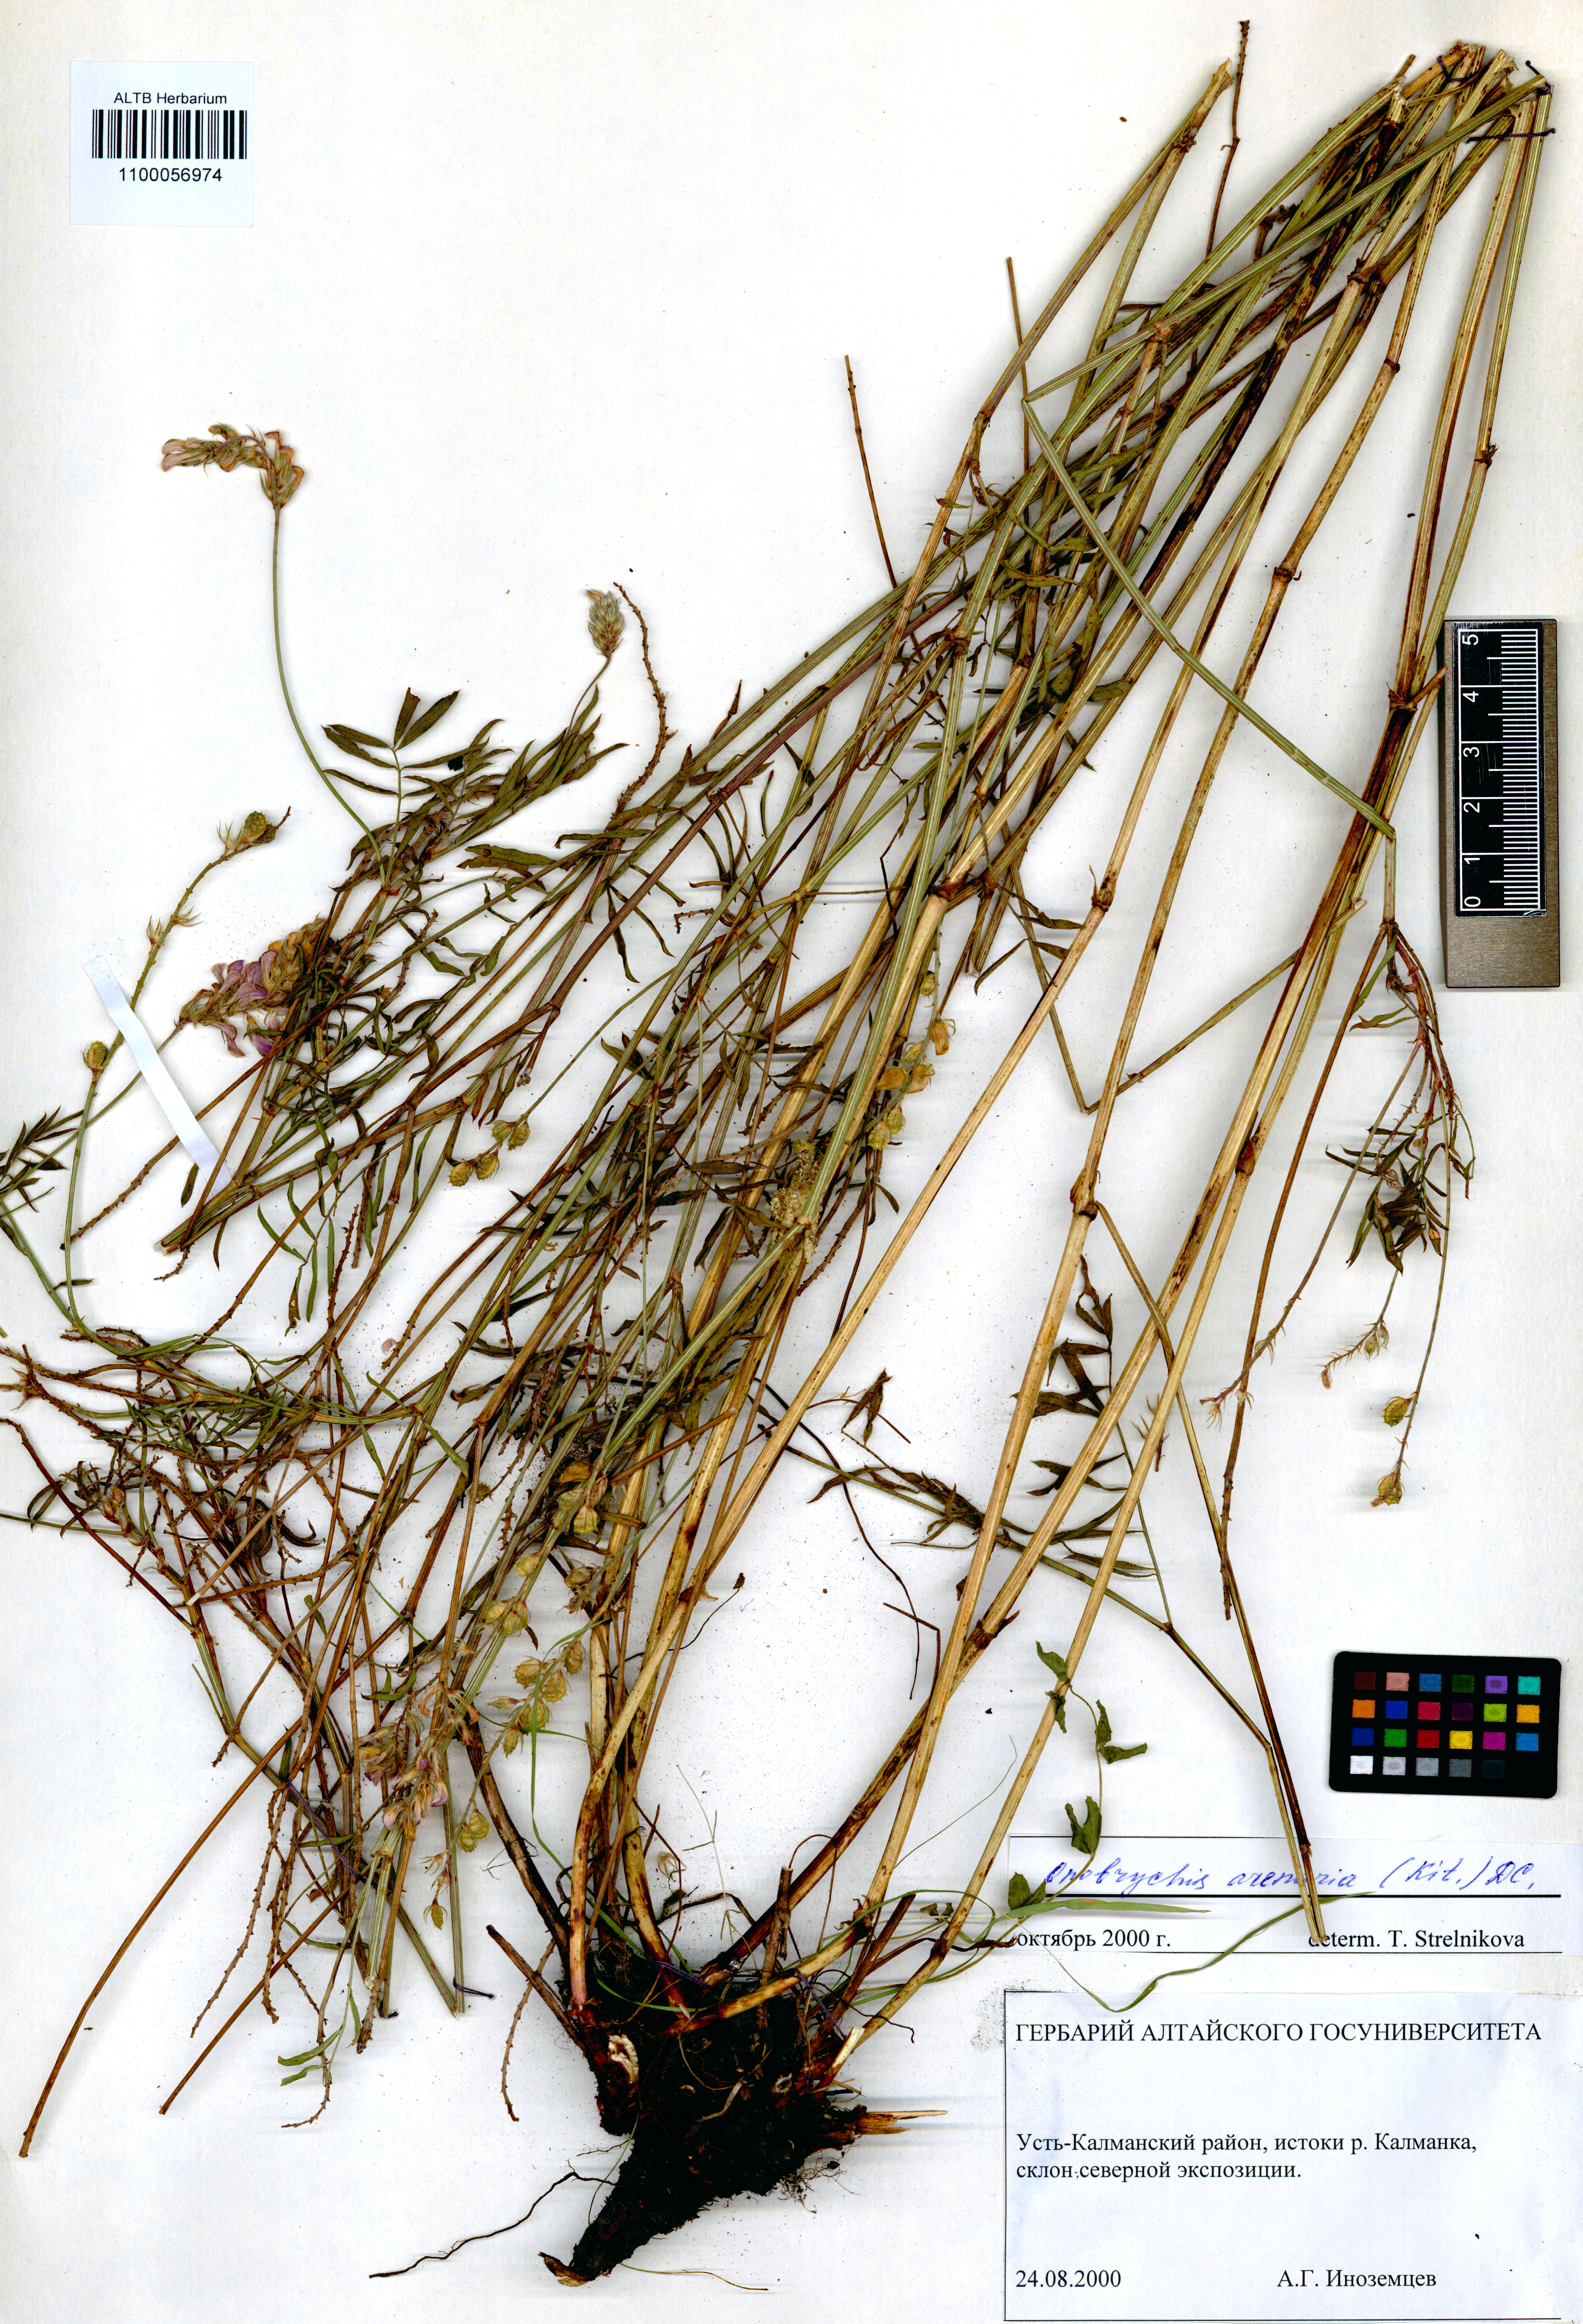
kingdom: Plantae
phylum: Tracheophyta
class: Magnoliopsida
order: Fabales
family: Fabaceae
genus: Onobrychis
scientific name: Onobrychis arenaria
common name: Sand esparcet
